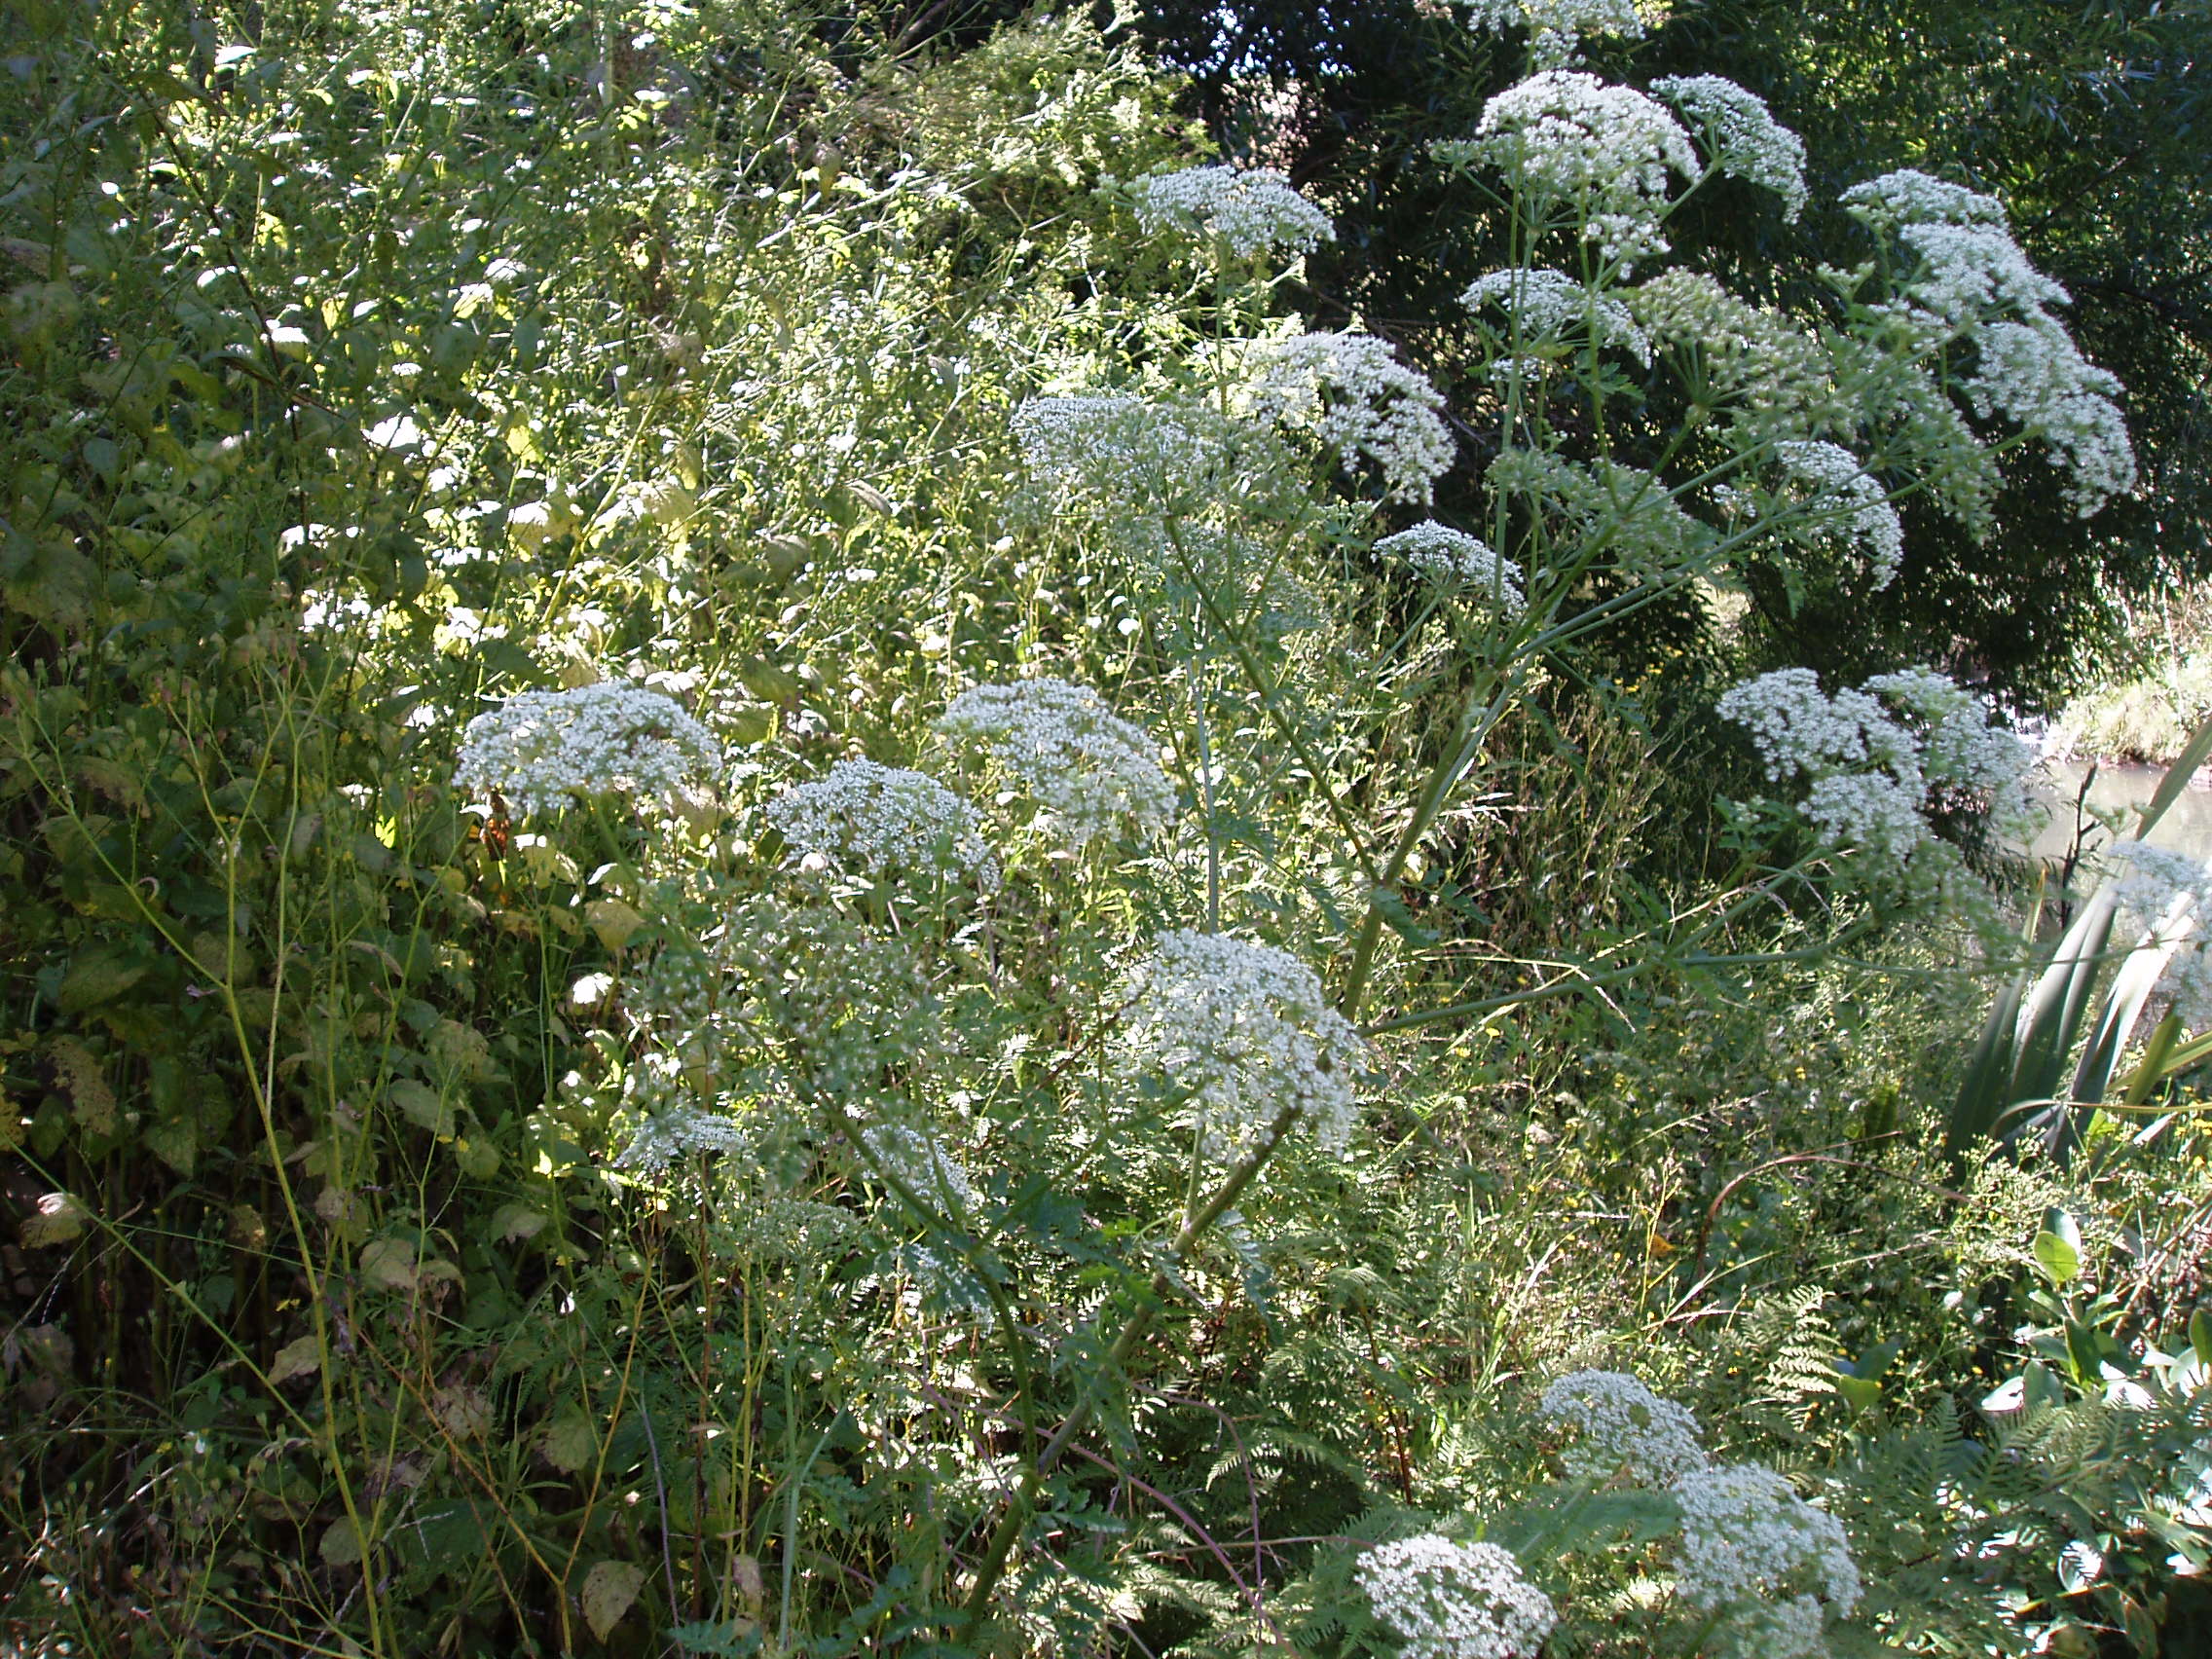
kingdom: Plantae
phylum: Tracheophyta
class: Magnoliopsida
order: Apiales
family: Apiaceae
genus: Conium
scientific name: Conium maculatum
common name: Hemlock
